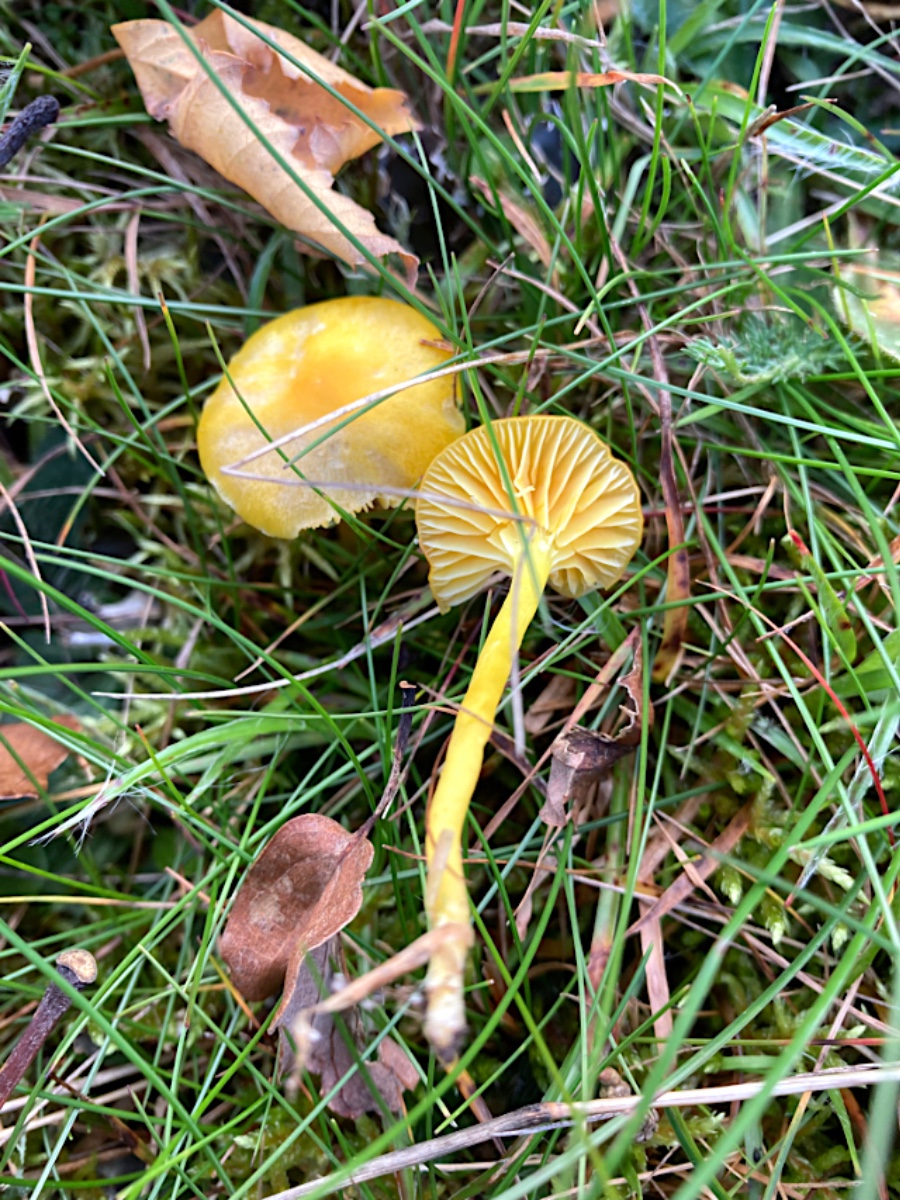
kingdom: Fungi
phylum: Basidiomycota
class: Agaricomycetes
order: Agaricales
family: Hygrophoraceae
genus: Hygrocybe
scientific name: Hygrocybe ceracea
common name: voksgul vokshat
